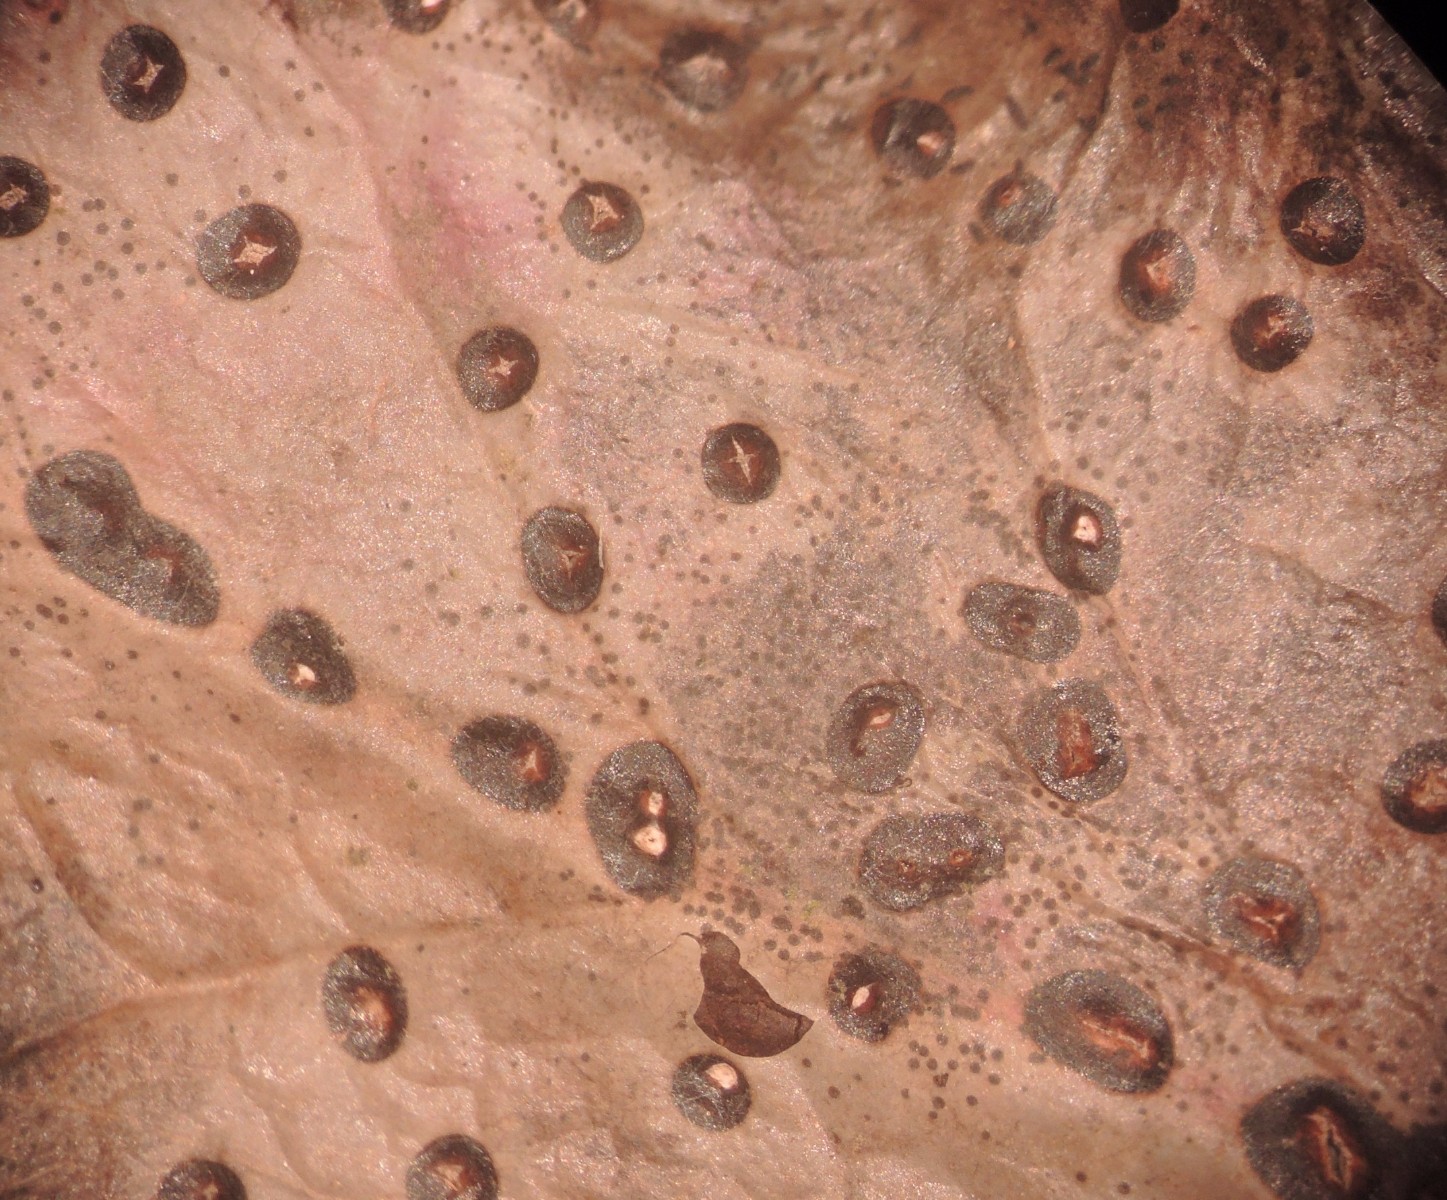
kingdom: Fungi
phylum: Ascomycota
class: Leotiomycetes
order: Phacidiales
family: Phacidiaceae
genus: Phacidium
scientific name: Phacidium lauri
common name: kristtorn-tandskive
